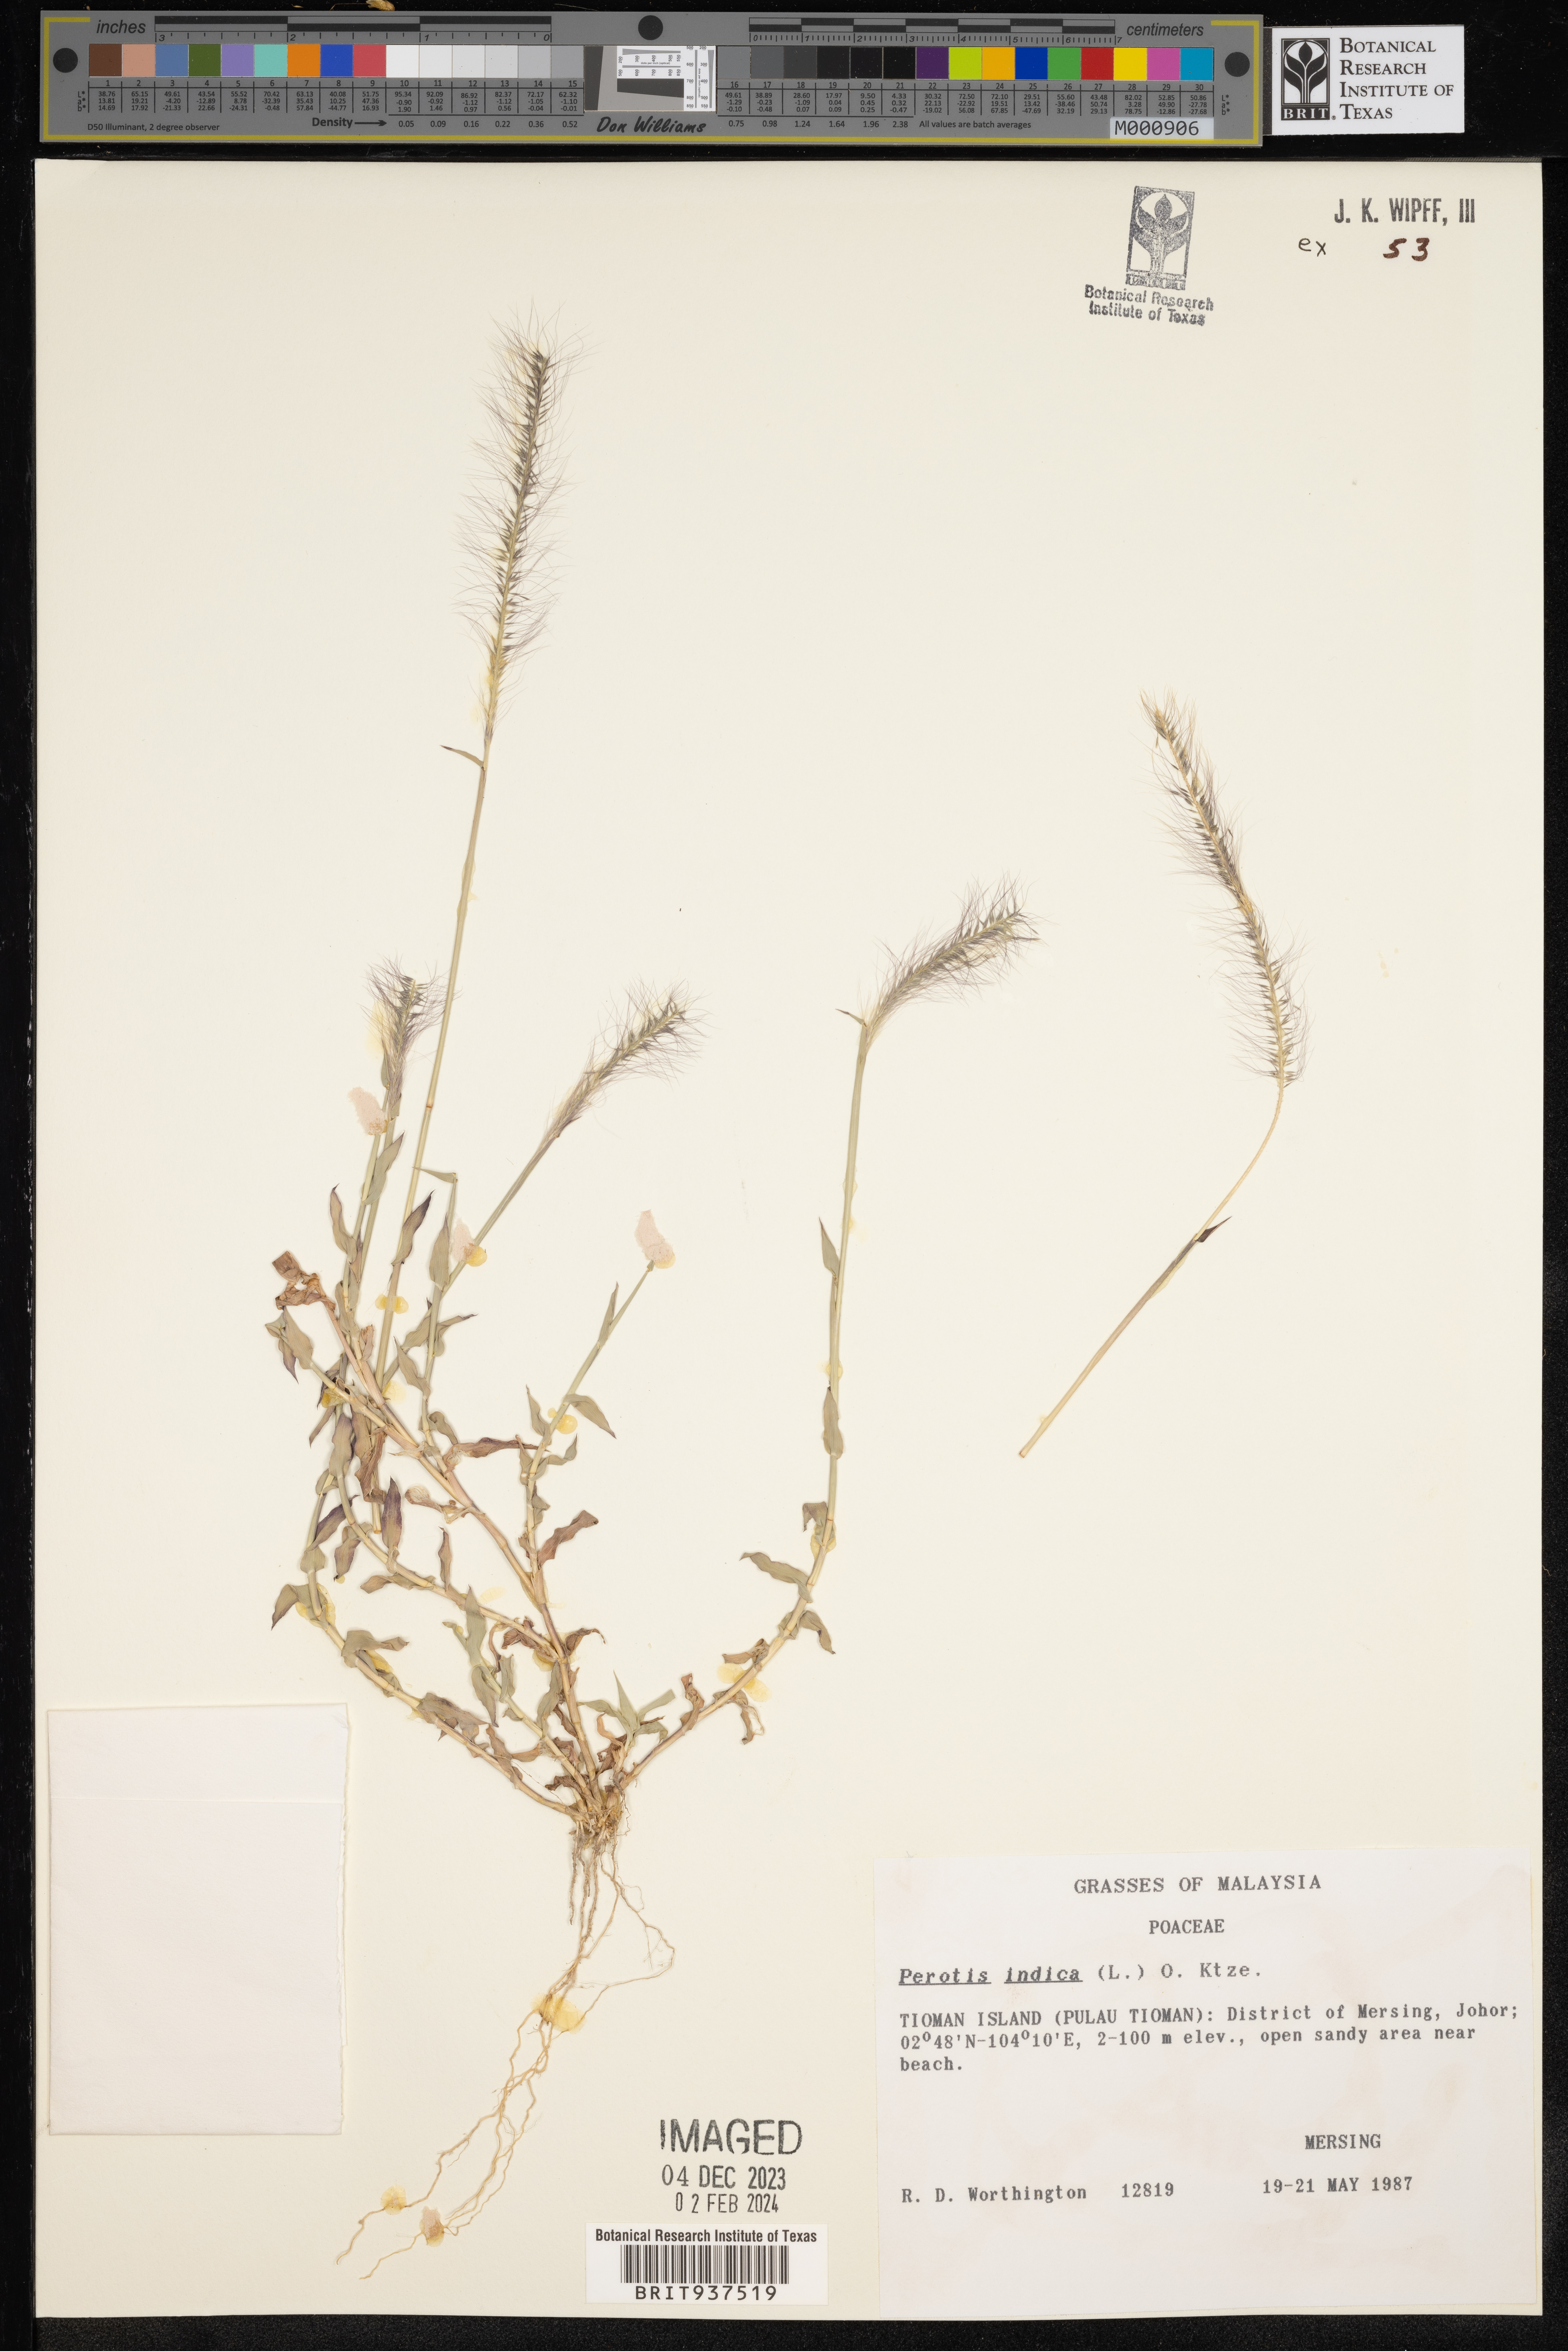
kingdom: Plantae
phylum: Tracheophyta
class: Liliopsida
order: Poales
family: Poaceae
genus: Perotis
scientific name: Perotis
